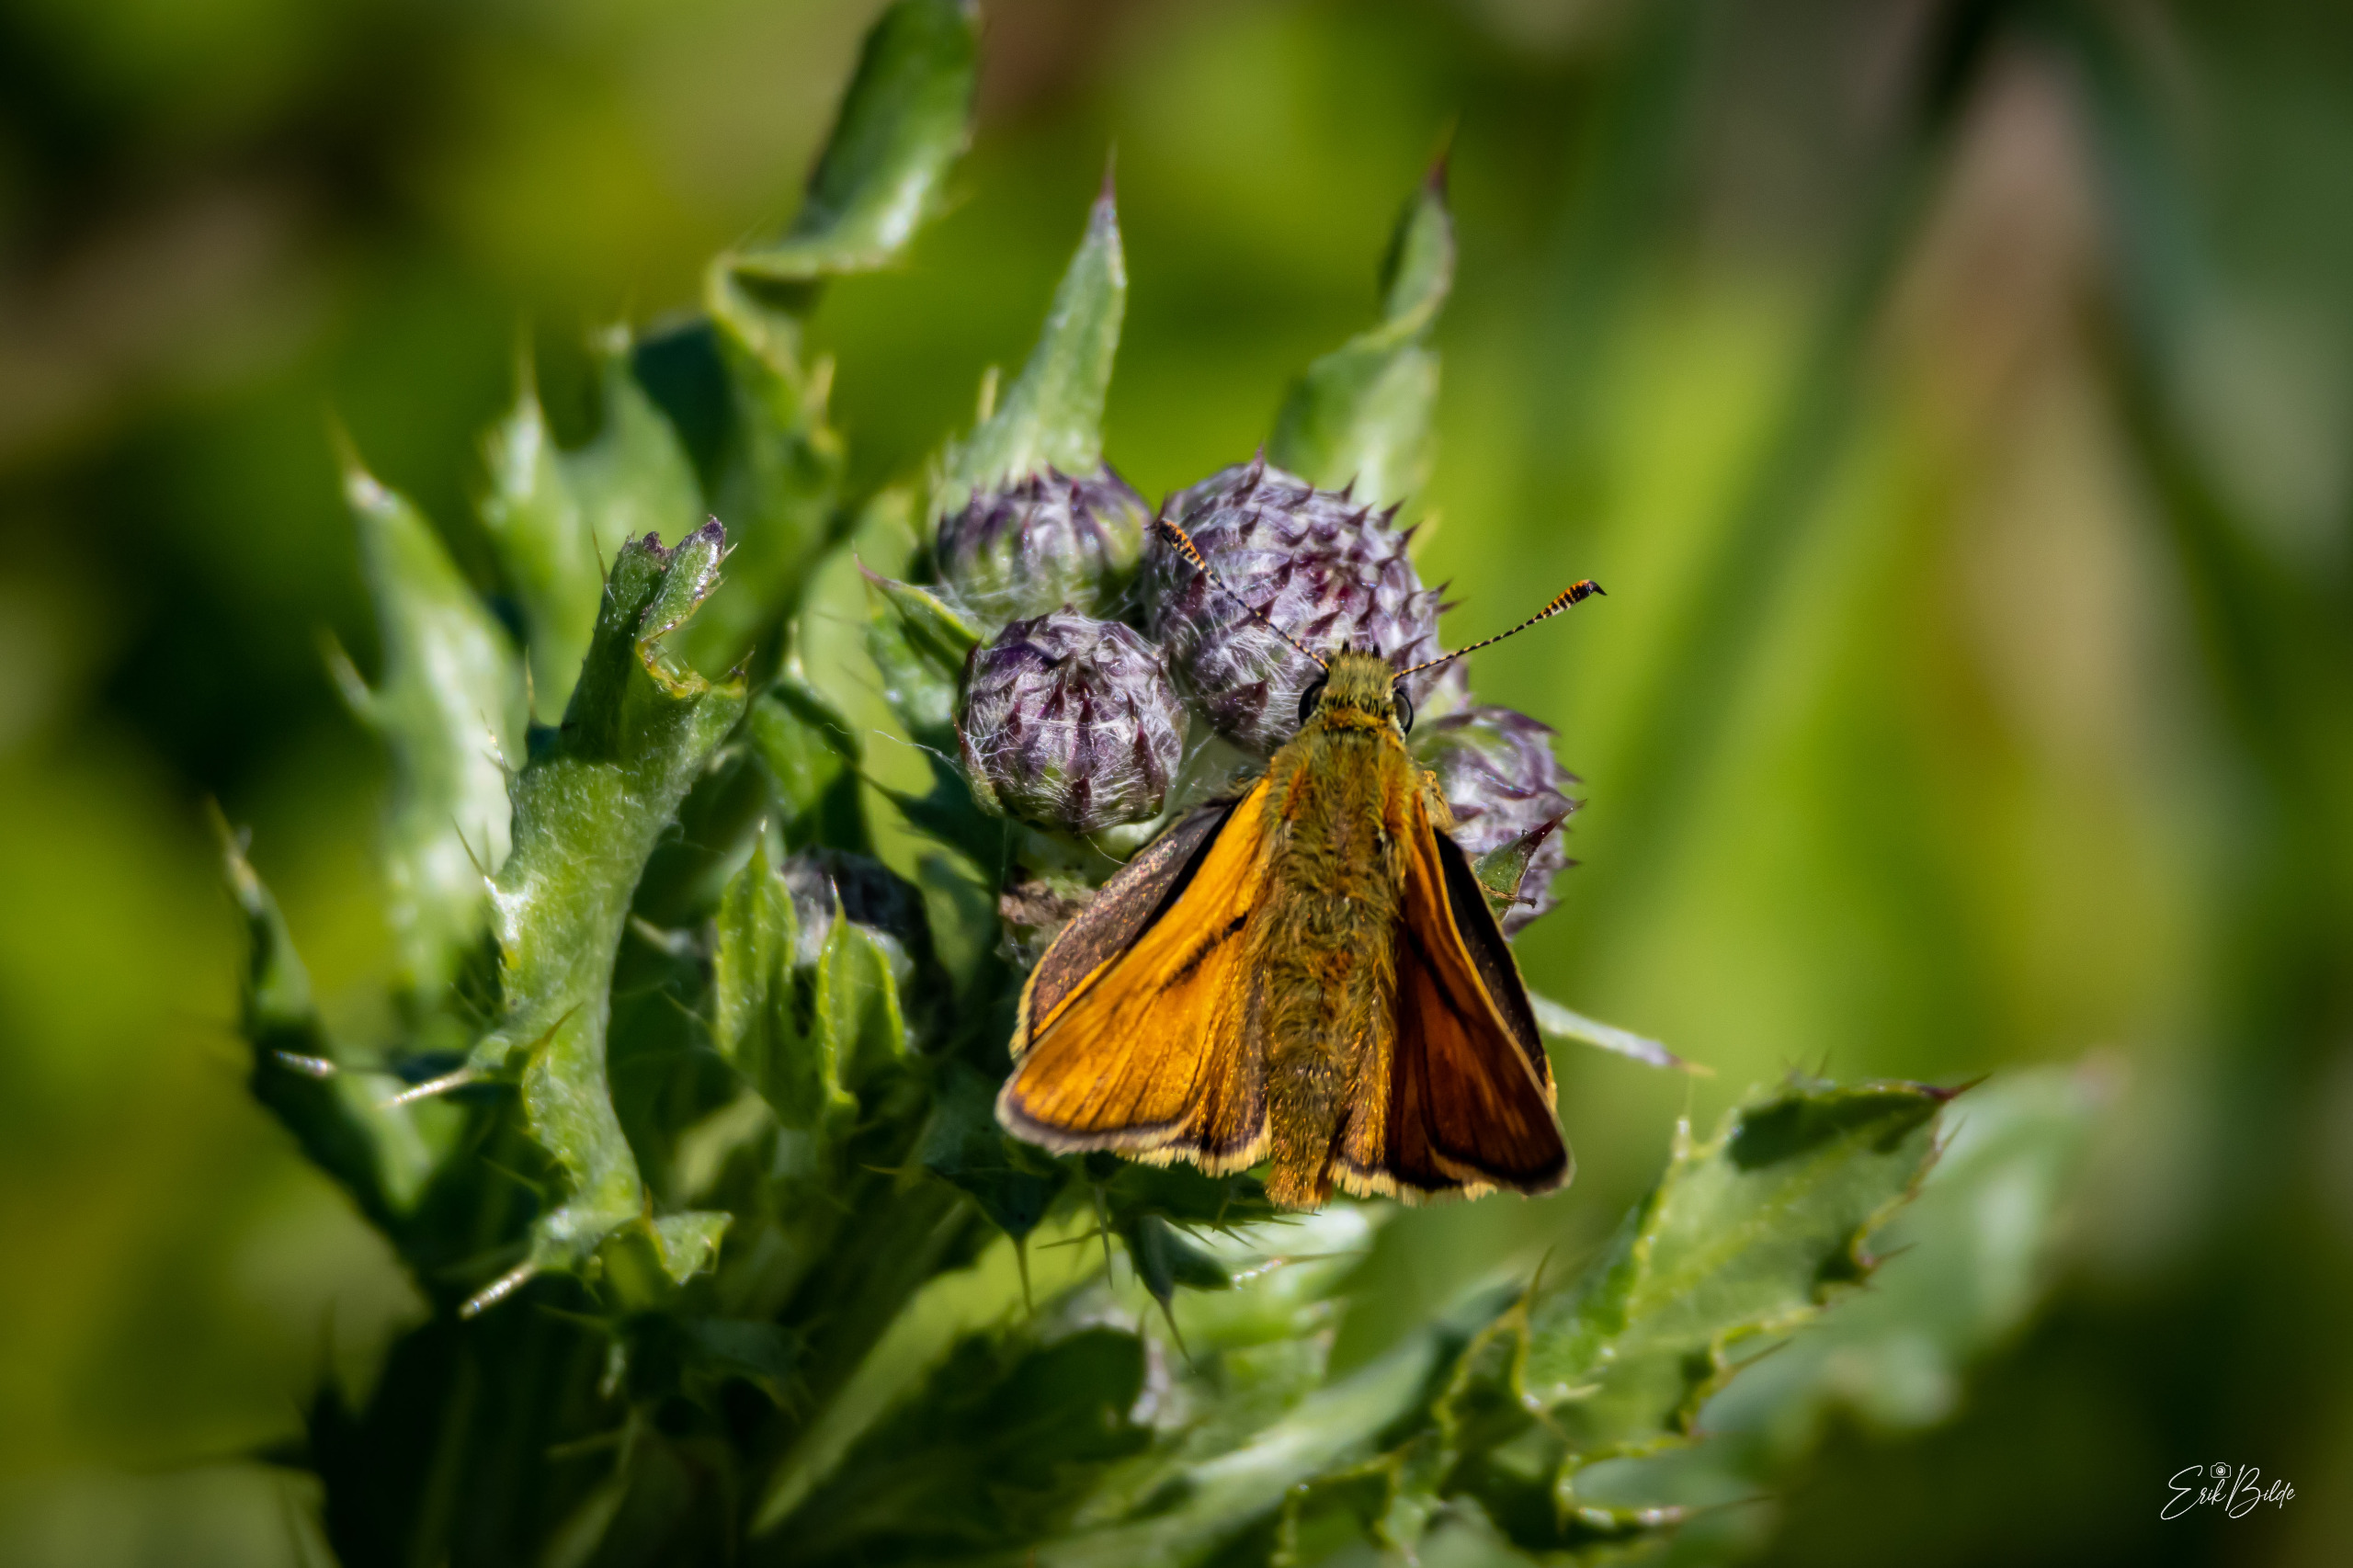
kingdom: Animalia
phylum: Arthropoda
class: Insecta
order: Lepidoptera
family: Hesperiidae
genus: Ochlodes
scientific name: Ochlodes venata
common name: Stor bredpande
